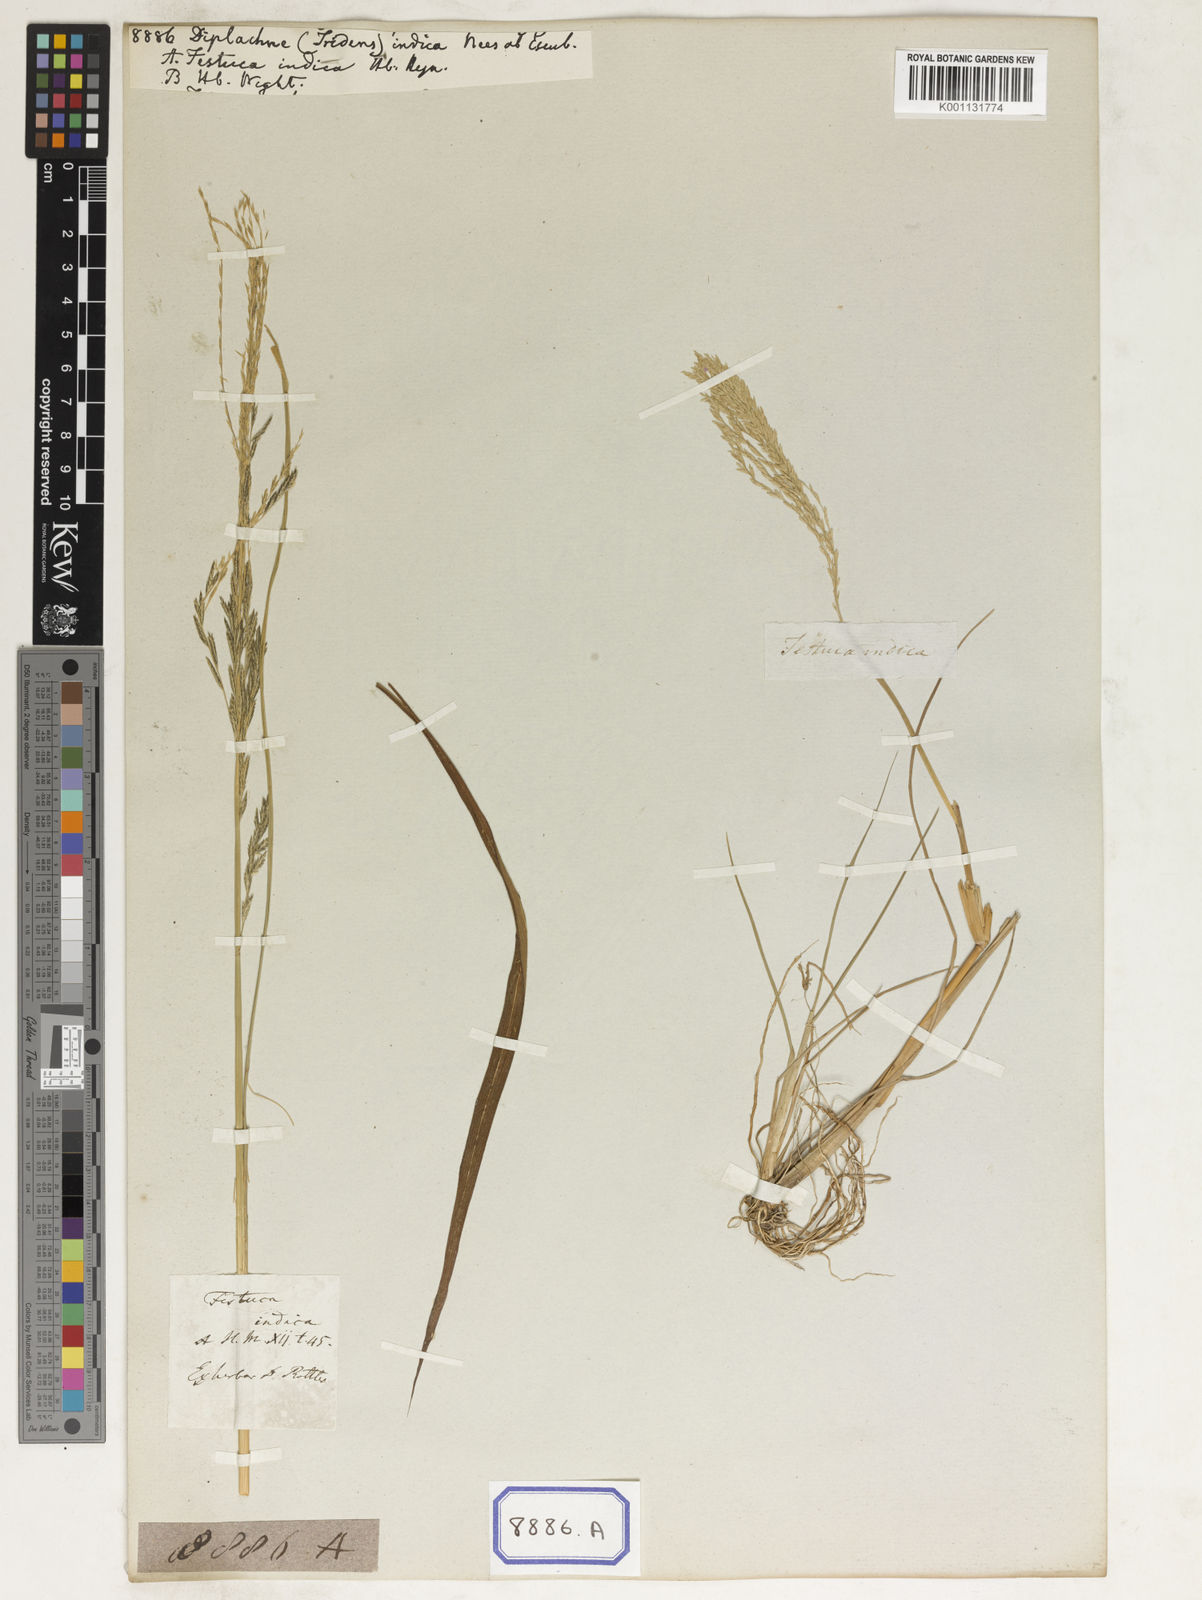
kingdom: Plantae
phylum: Tracheophyta
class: Liliopsida
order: Poales
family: Poaceae
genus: Diplachne
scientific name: Diplachne fusca
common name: Brown beetle grass
